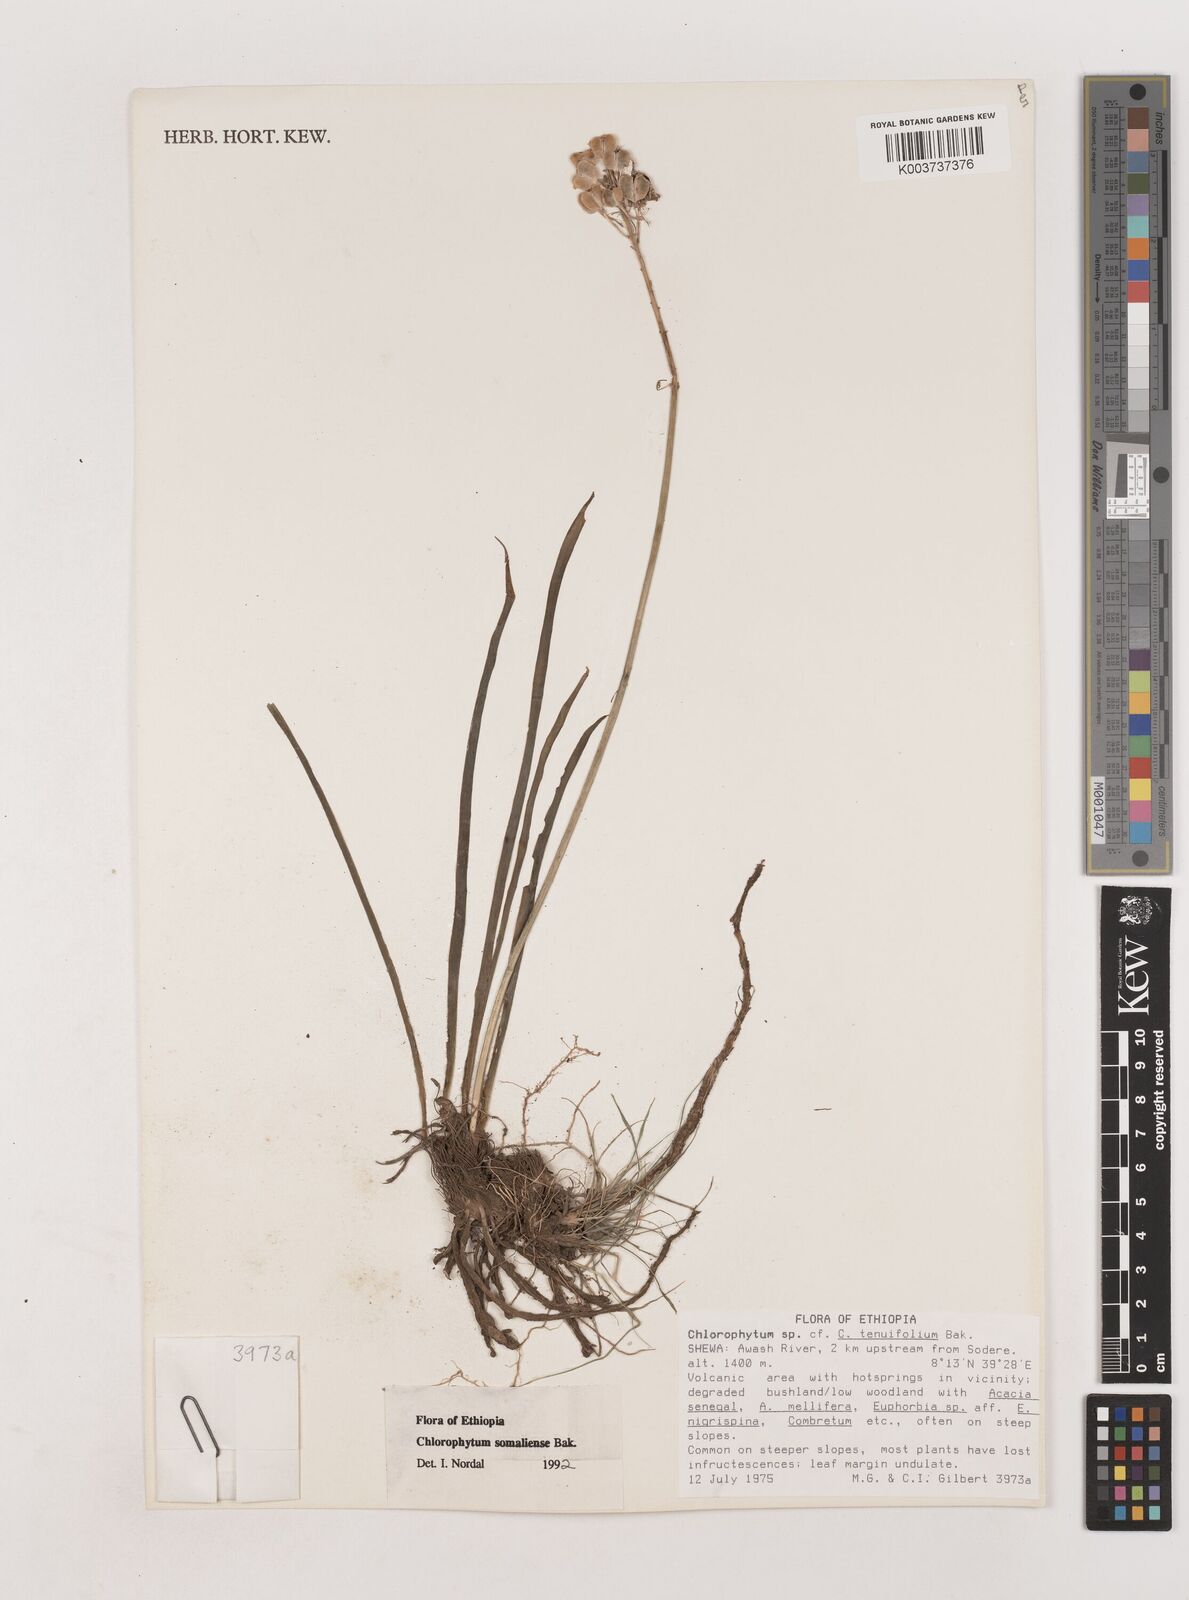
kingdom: Plantae
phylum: Tracheophyta
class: Liliopsida
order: Asparagales
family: Asparagaceae
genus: Chlorophytum
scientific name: Chlorophytum somaliense
